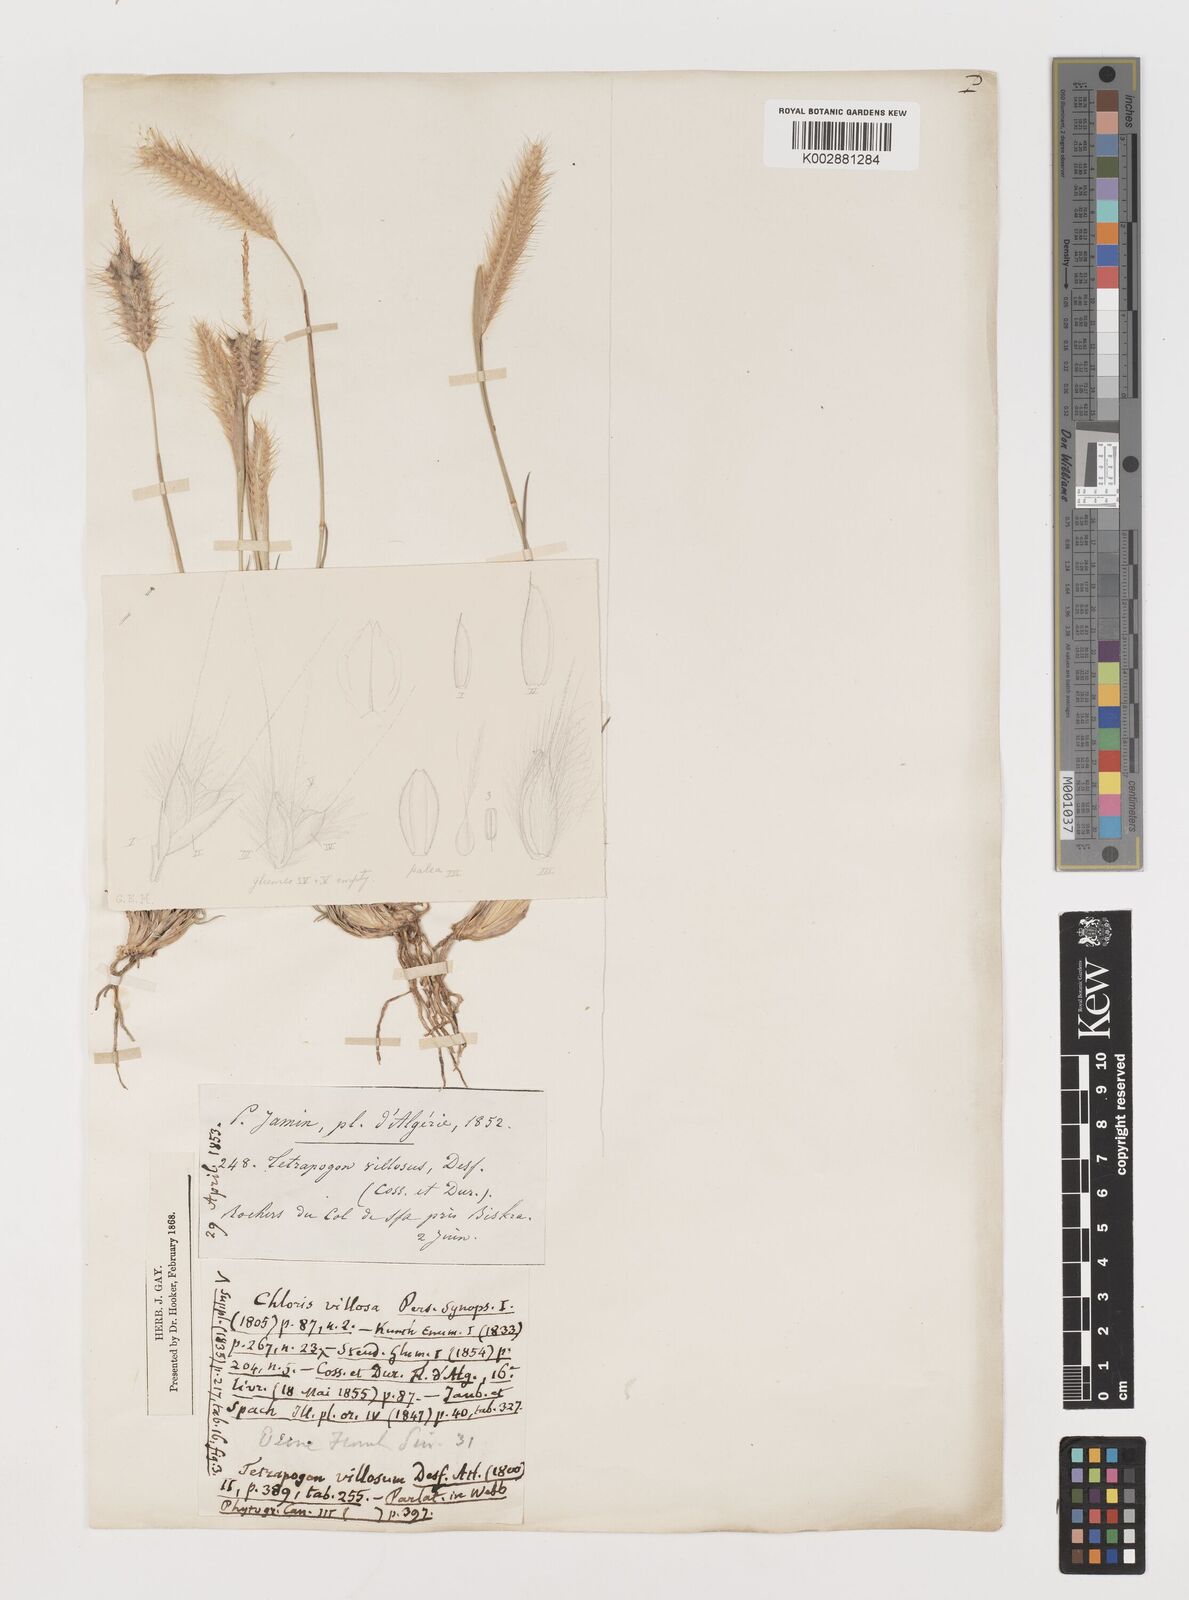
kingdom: Plantae
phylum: Tracheophyta
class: Liliopsida
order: Poales
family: Poaceae
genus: Tetrapogon
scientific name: Tetrapogon villosus
